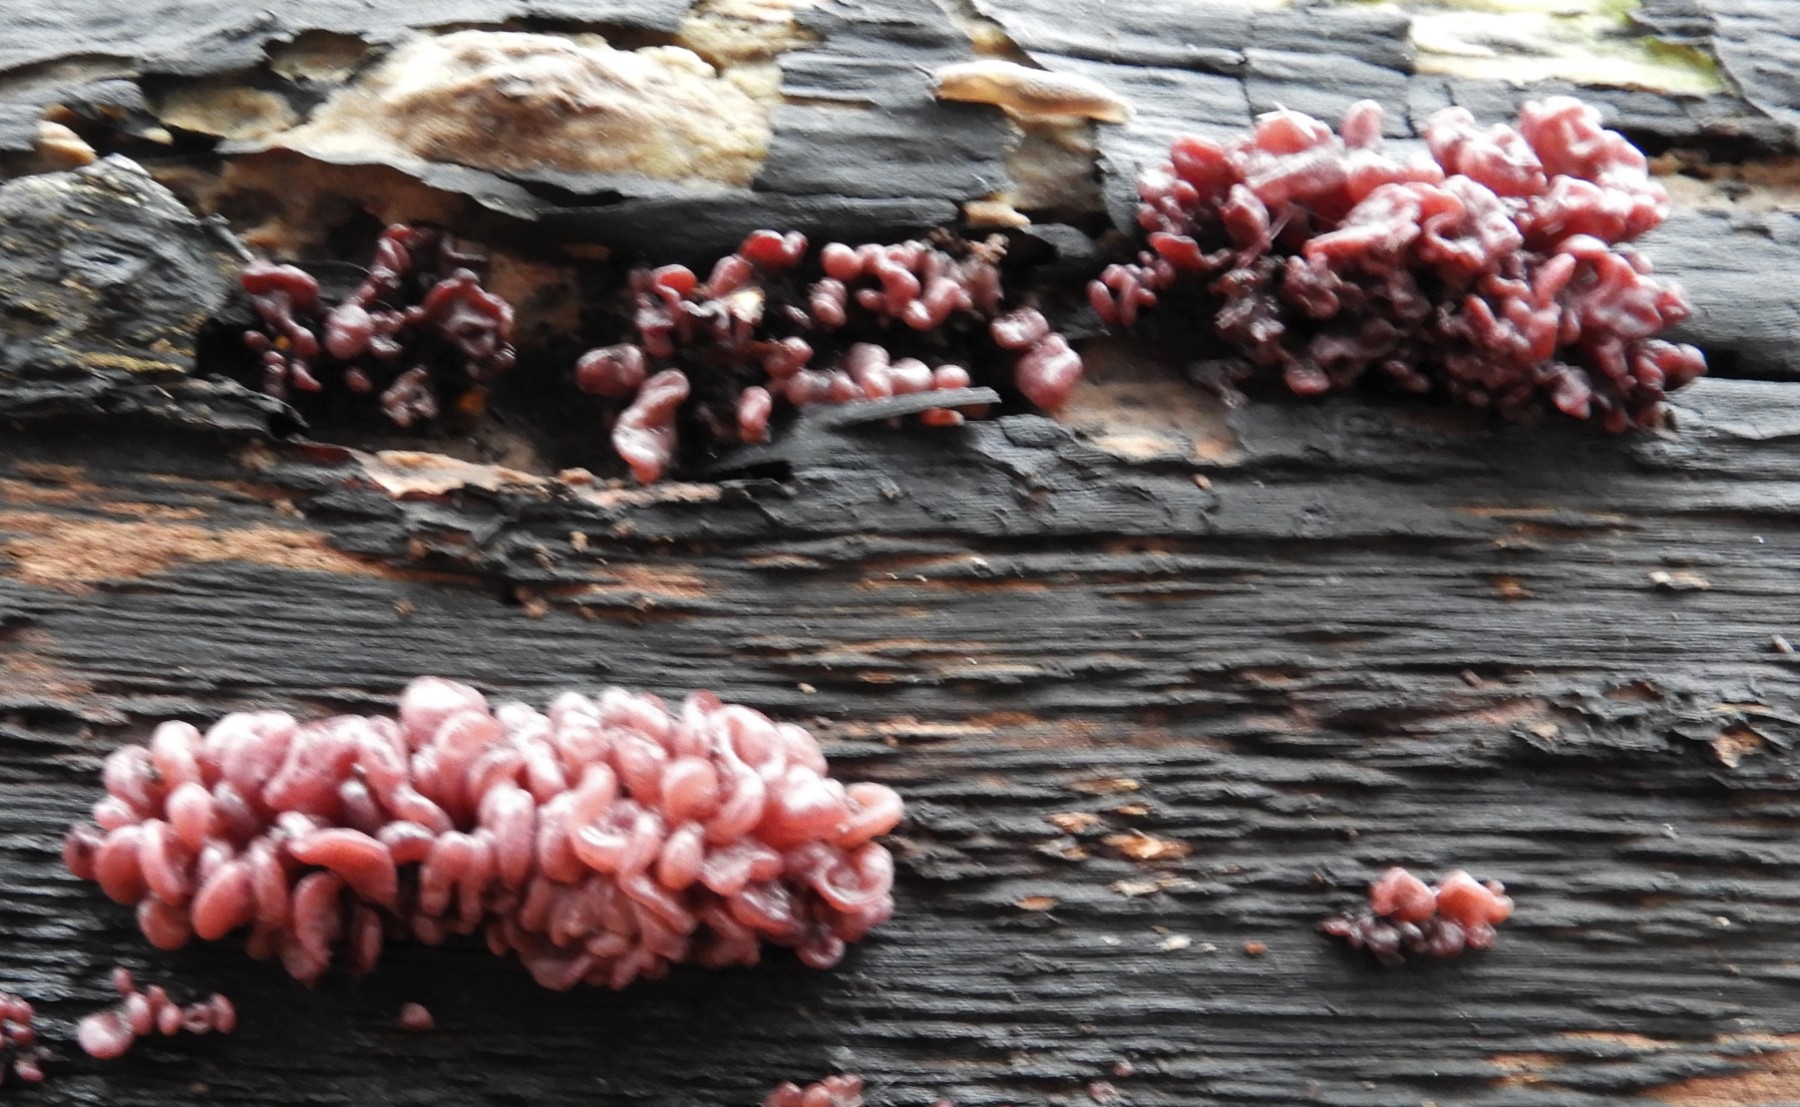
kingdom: Fungi
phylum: Ascomycota
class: Leotiomycetes
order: Helotiales
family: Gelatinodiscaceae
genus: Ascocoryne
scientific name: Ascocoryne sarcoides
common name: rødlilla sejskive
